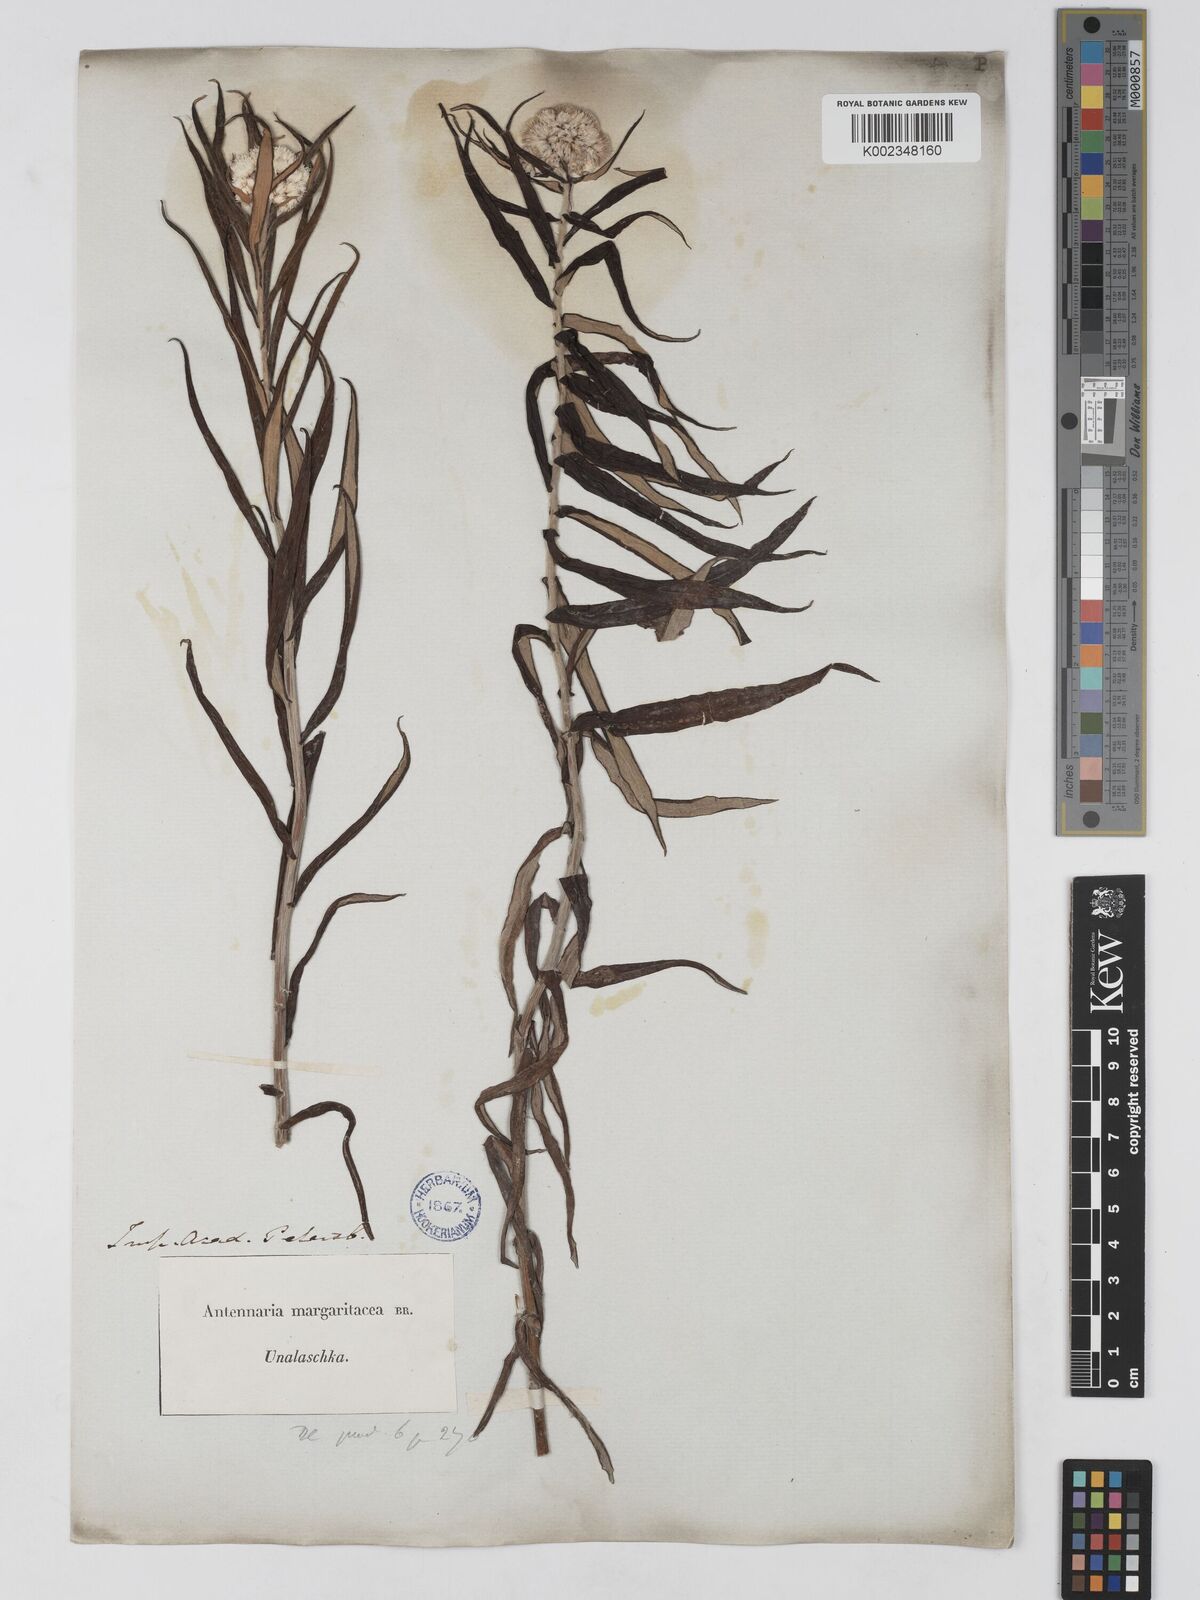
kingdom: Plantae
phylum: Tracheophyta
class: Magnoliopsida
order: Asterales
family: Asteraceae
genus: Anaphalis
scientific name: Anaphalis margaritacea
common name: Pearly everlasting
